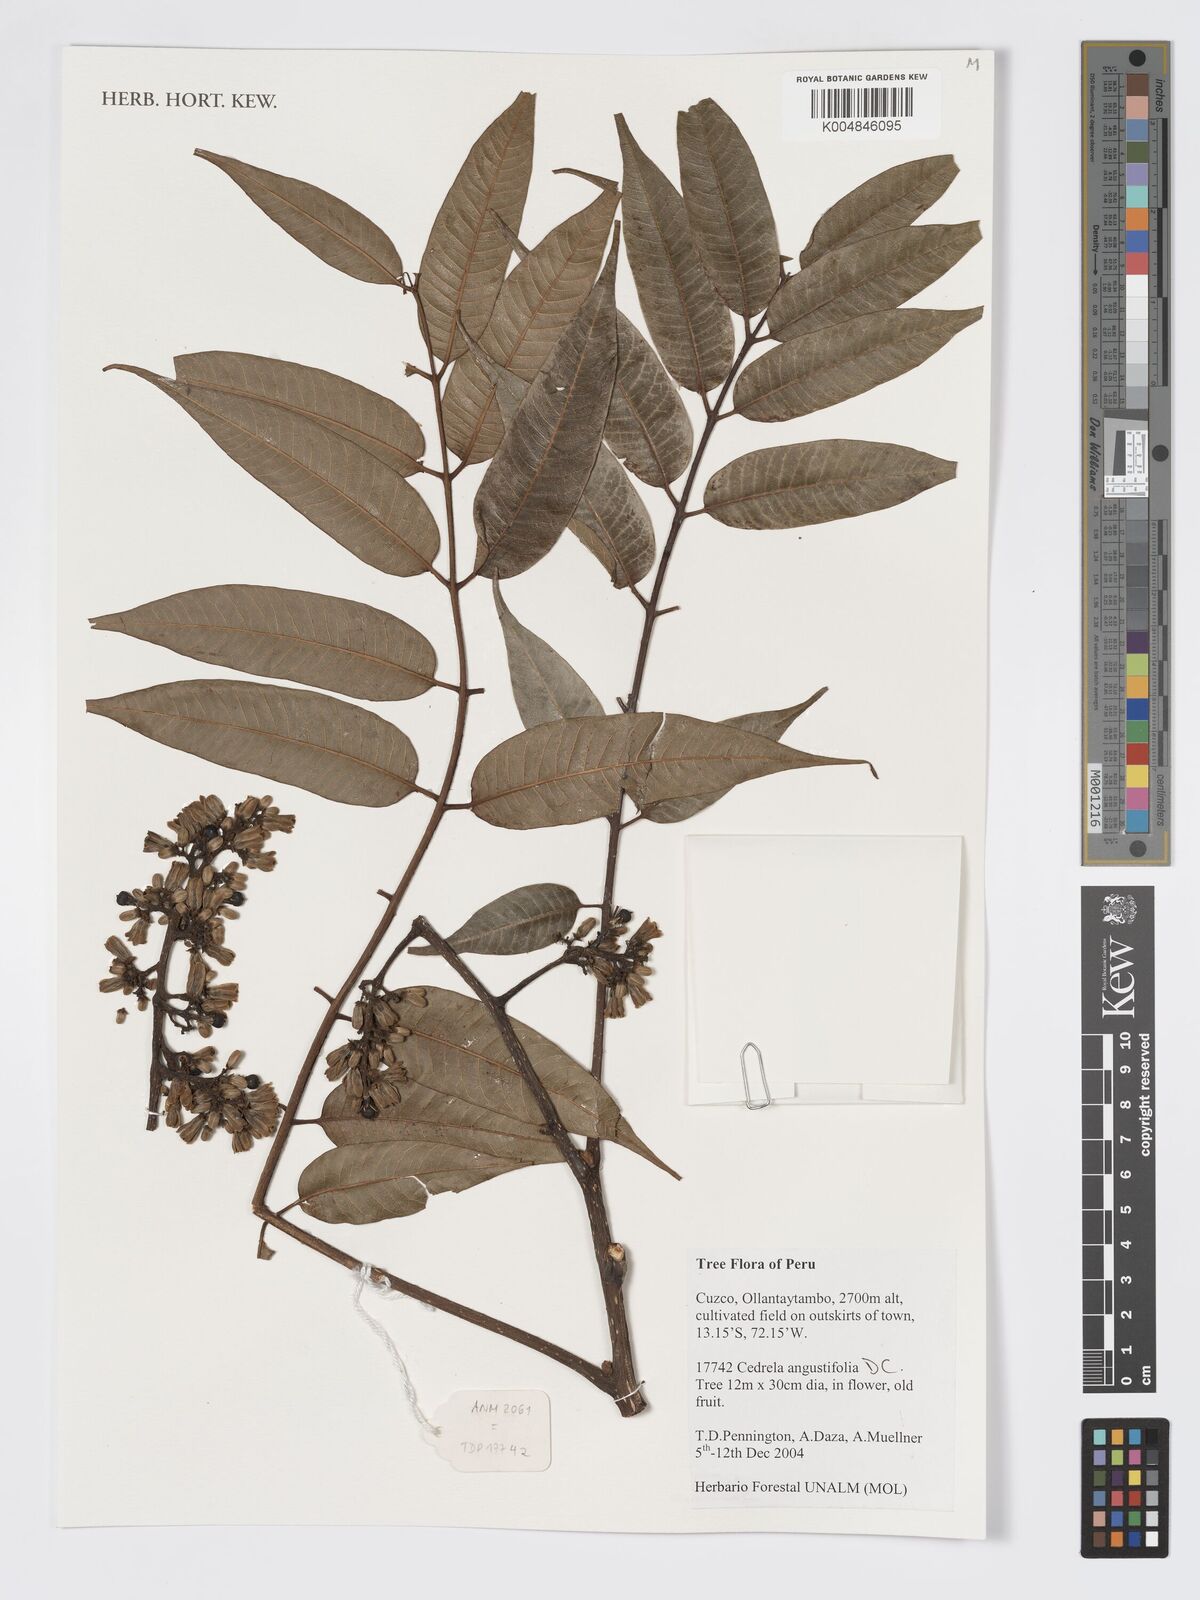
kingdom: Plantae
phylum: Tracheophyta
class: Magnoliopsida
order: Sapindales
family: Meliaceae
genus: Cedrela
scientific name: Cedrela odorata
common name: Red cedar
